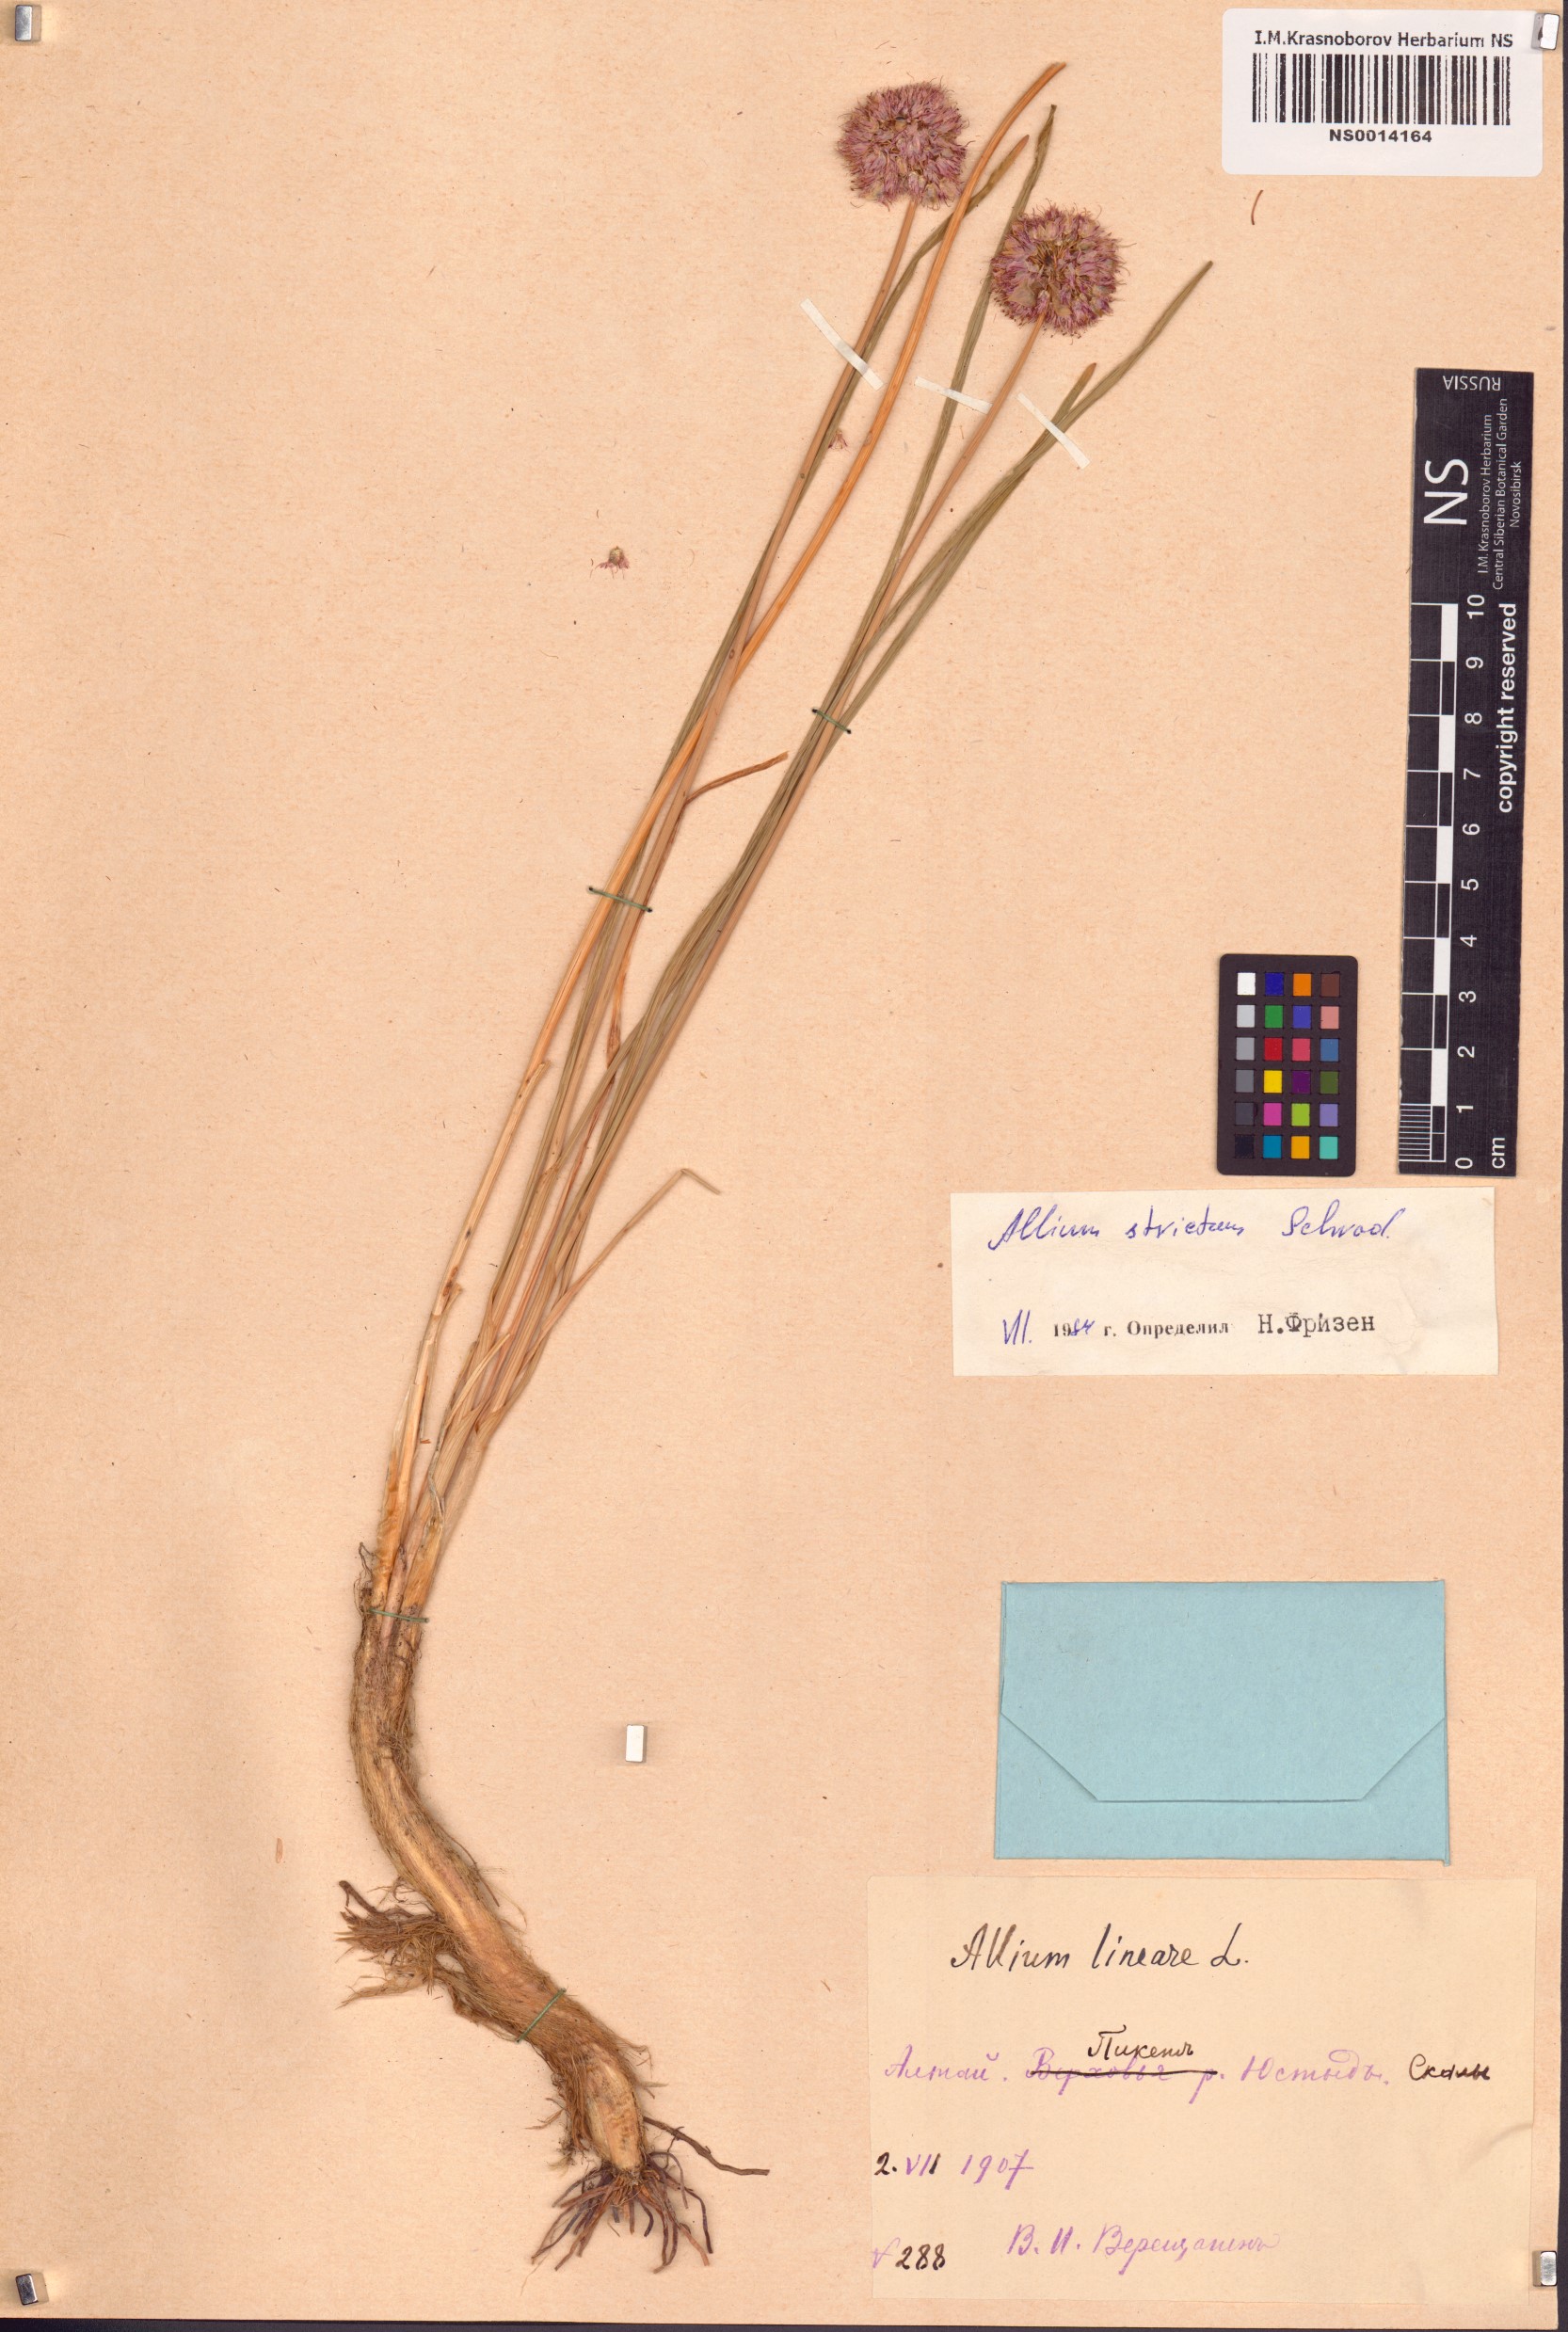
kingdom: Plantae
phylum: Tracheophyta
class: Liliopsida
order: Asparagales
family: Amaryllidaceae
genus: Allium
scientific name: Allium strictum
